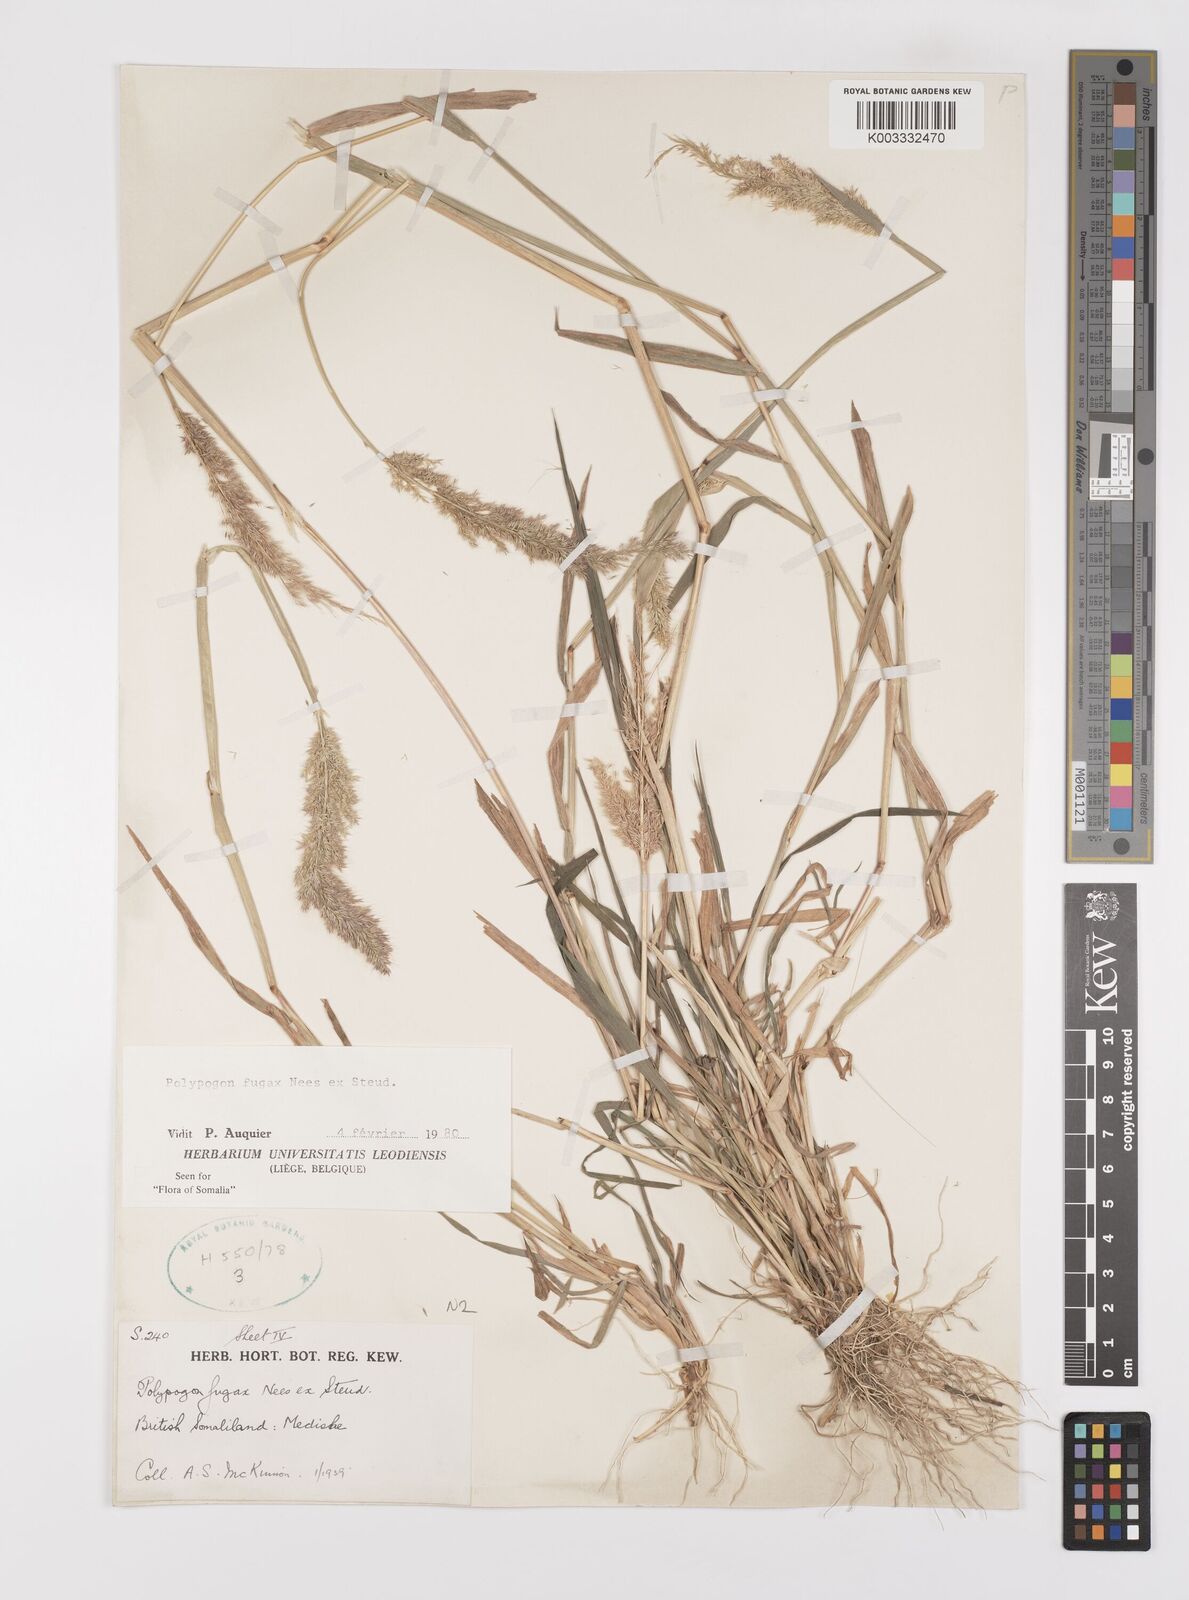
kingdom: Plantae
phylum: Tracheophyta
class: Liliopsida
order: Poales
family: Poaceae
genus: Polypogon
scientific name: Polypogon fugax
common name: Asia minor bluegrass
